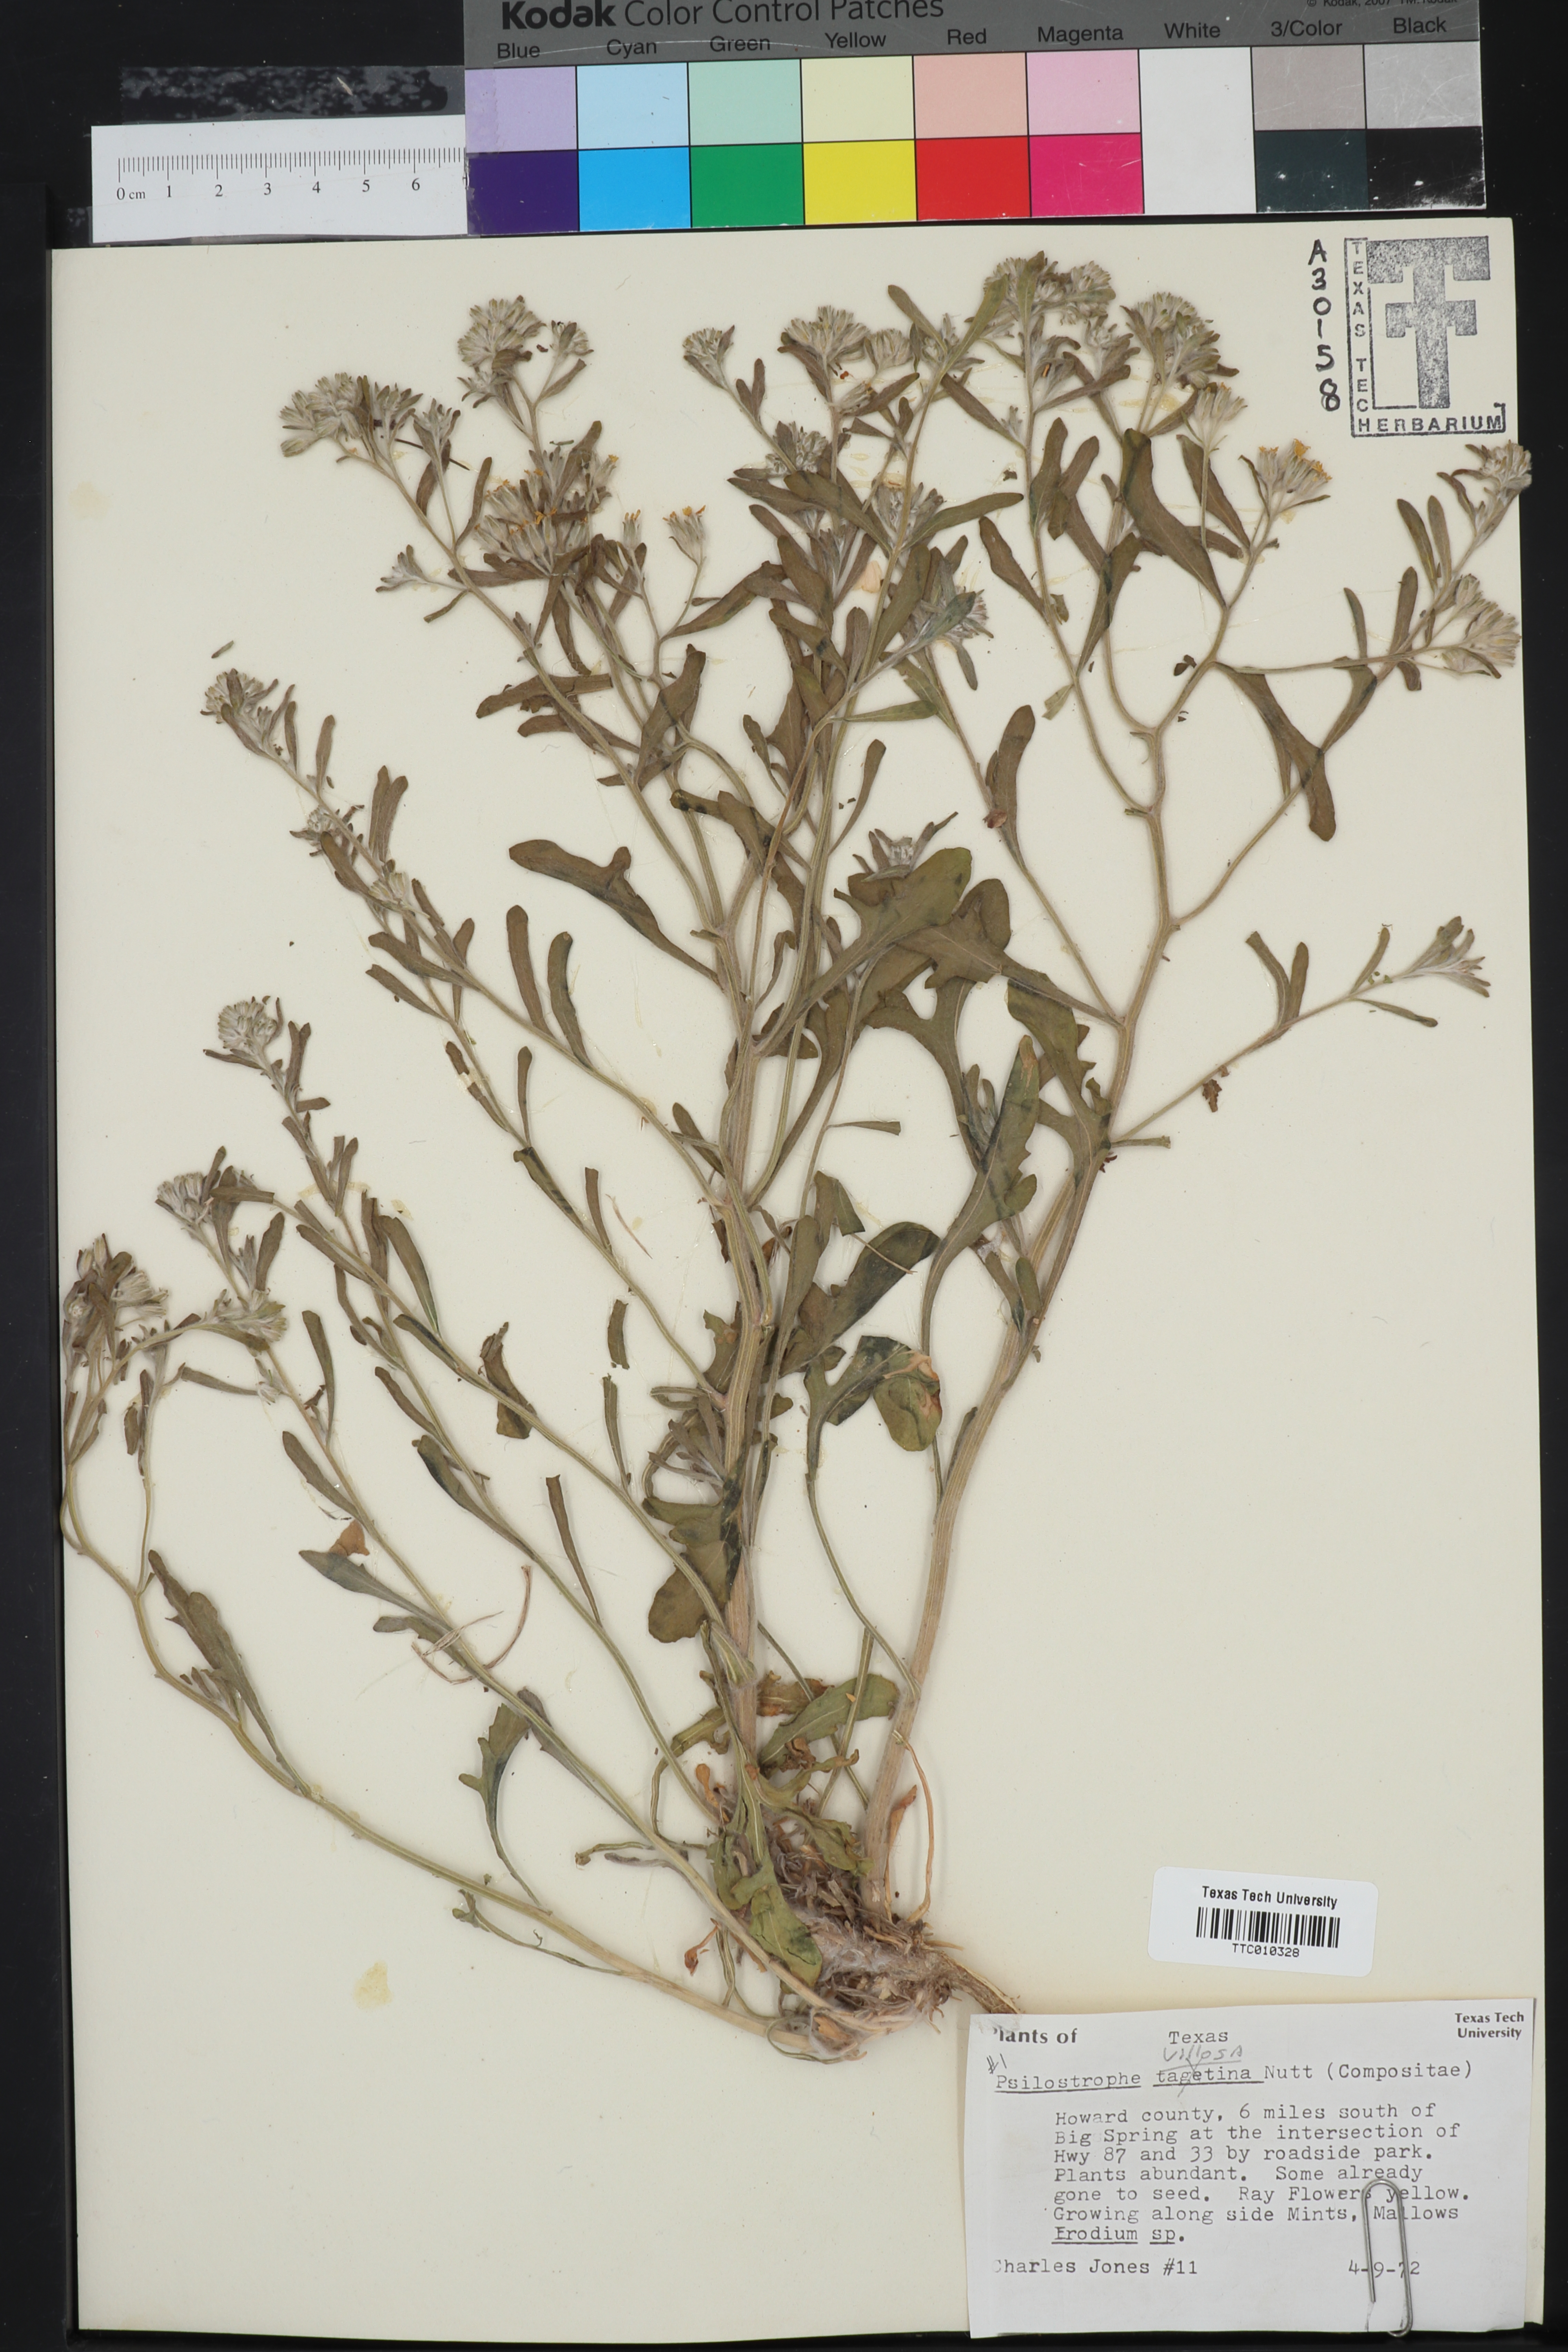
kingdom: Plantae
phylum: Tracheophyta
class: Magnoliopsida
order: Asterales
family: Asteraceae
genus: Psilostrophe
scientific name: Psilostrophe villosa
